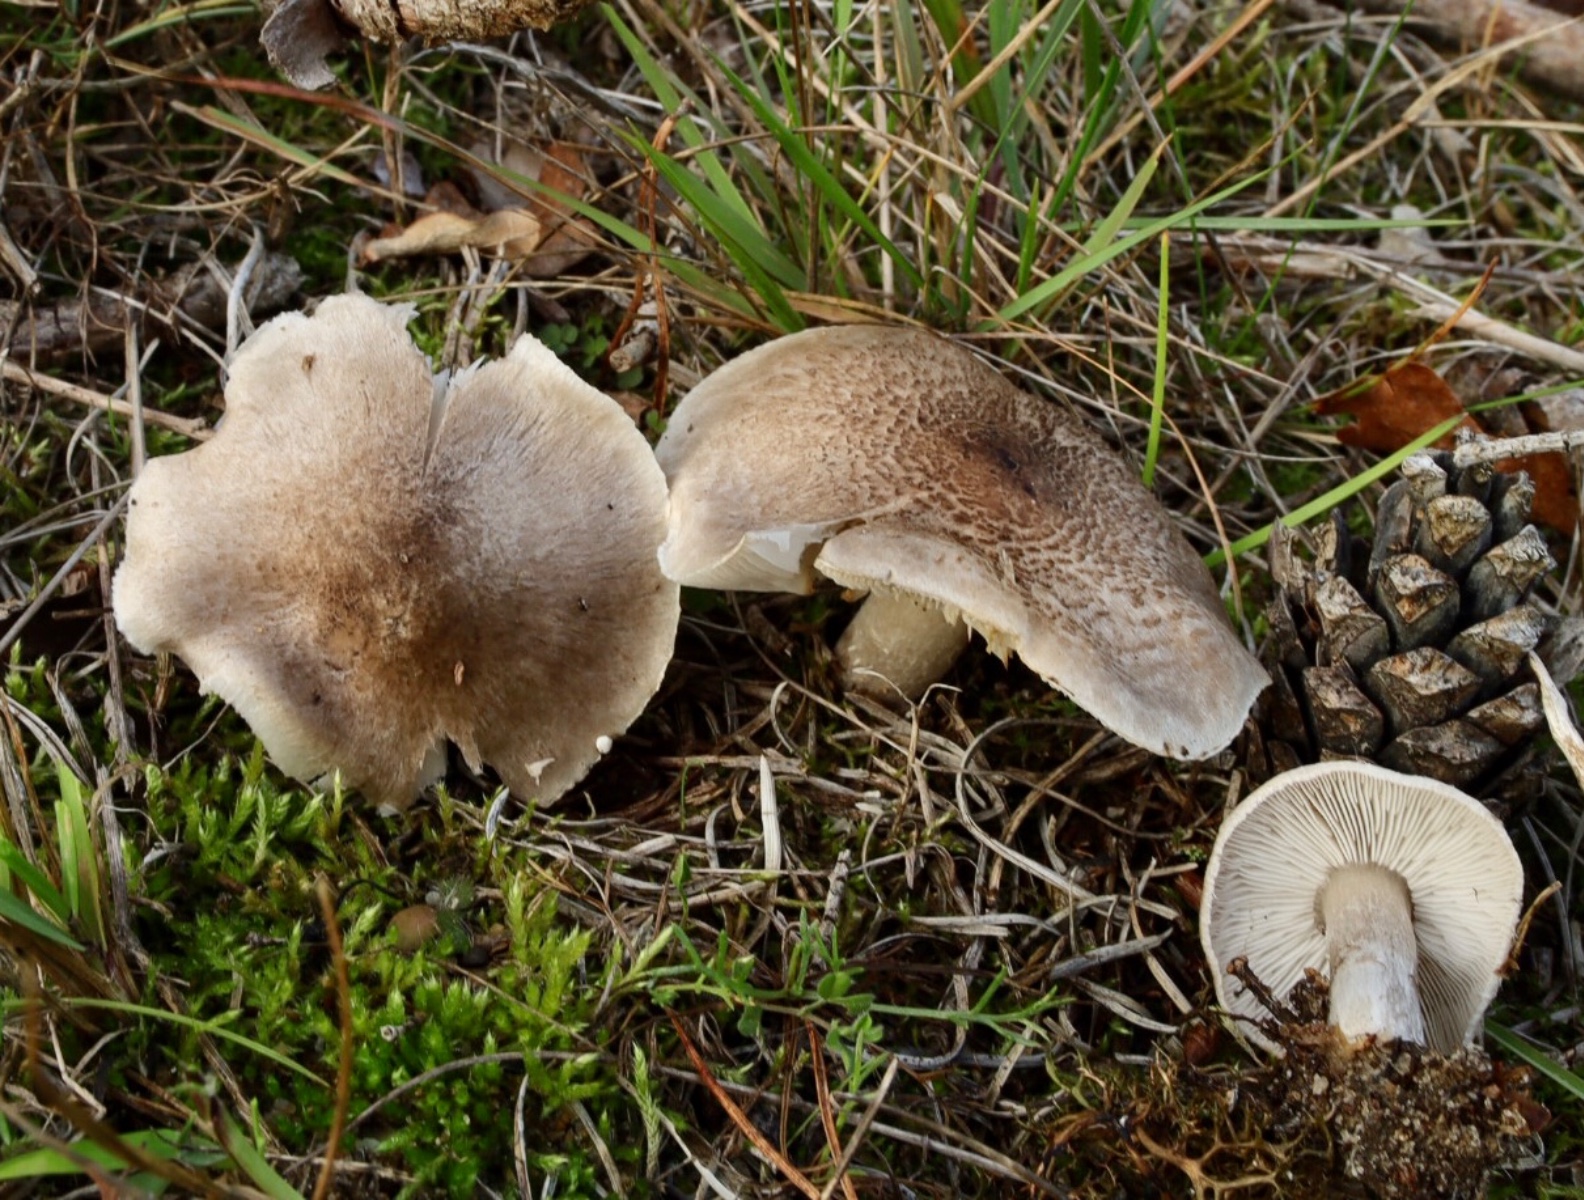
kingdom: Fungi
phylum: Basidiomycota
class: Agaricomycetes
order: Agaricales
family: Tricholomataceae
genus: Tricholoma
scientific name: Tricholoma argyraceum
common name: slør-ridderhat
